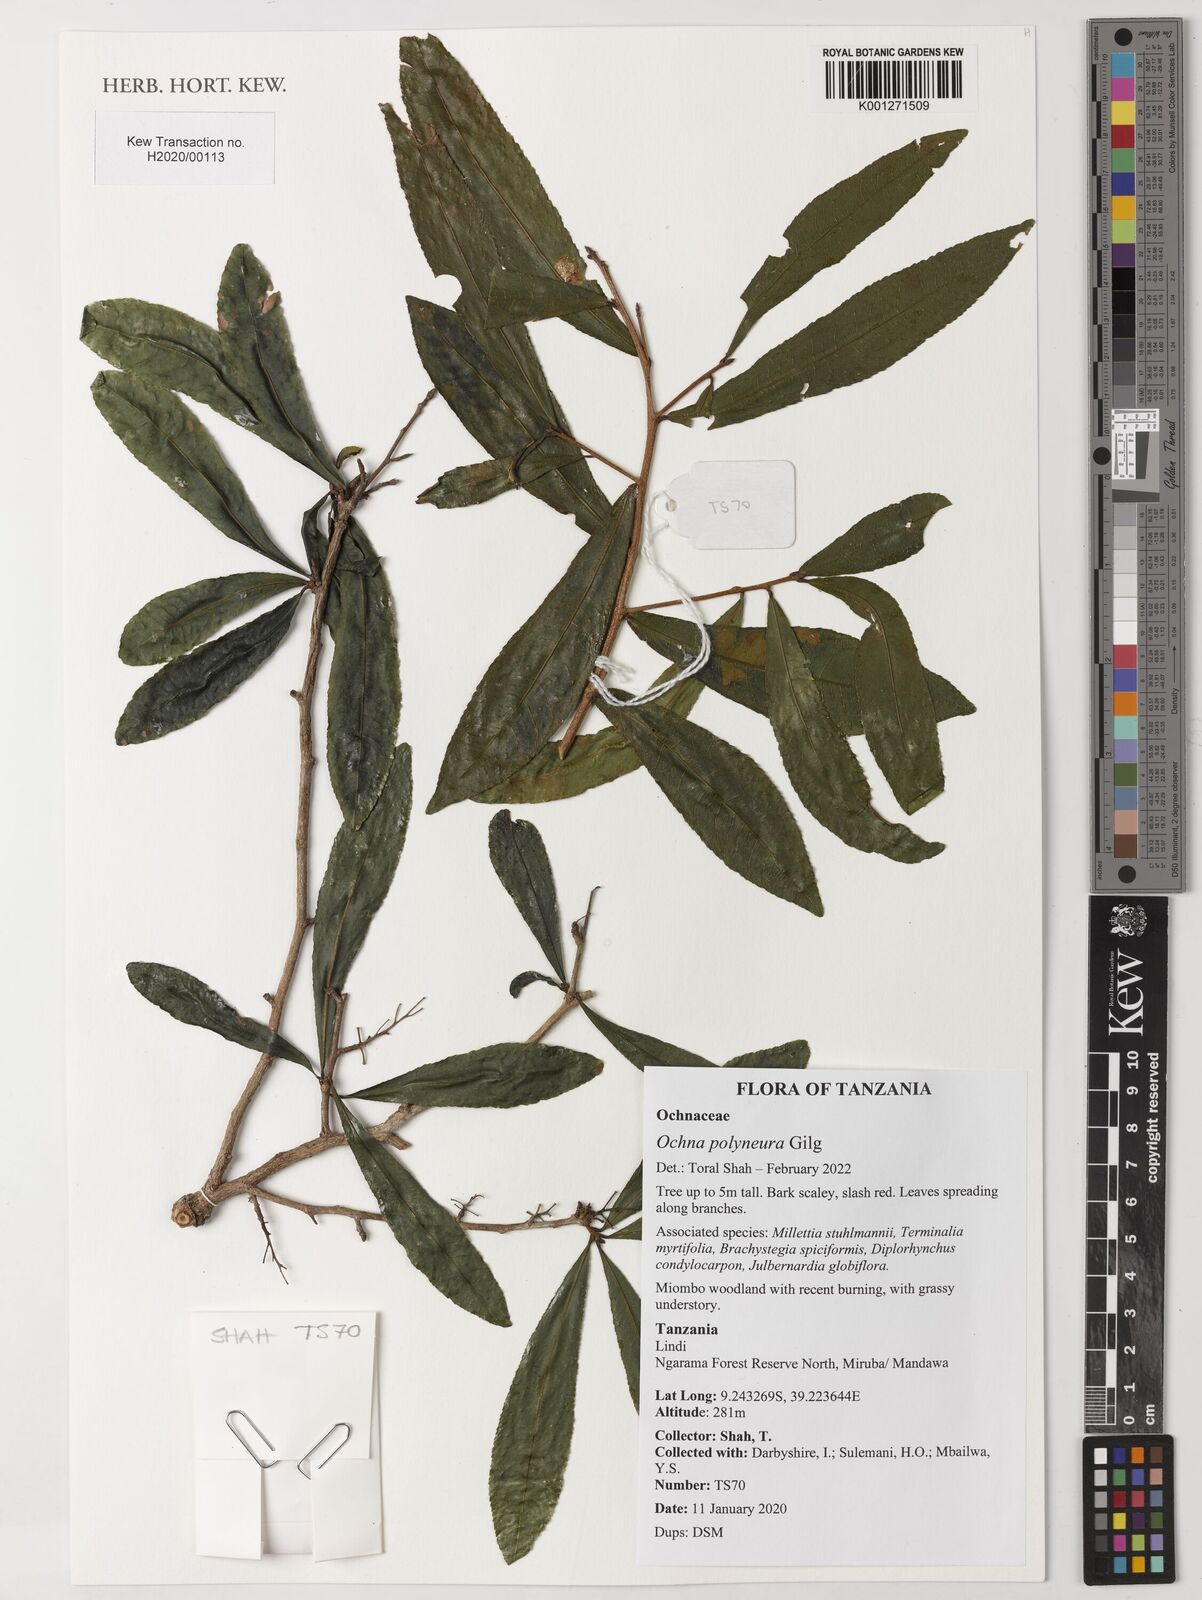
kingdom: Plantae
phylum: Tracheophyta
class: Magnoliopsida
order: Malpighiales
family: Ochnaceae
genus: Ochna
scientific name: Ochna polyneura
